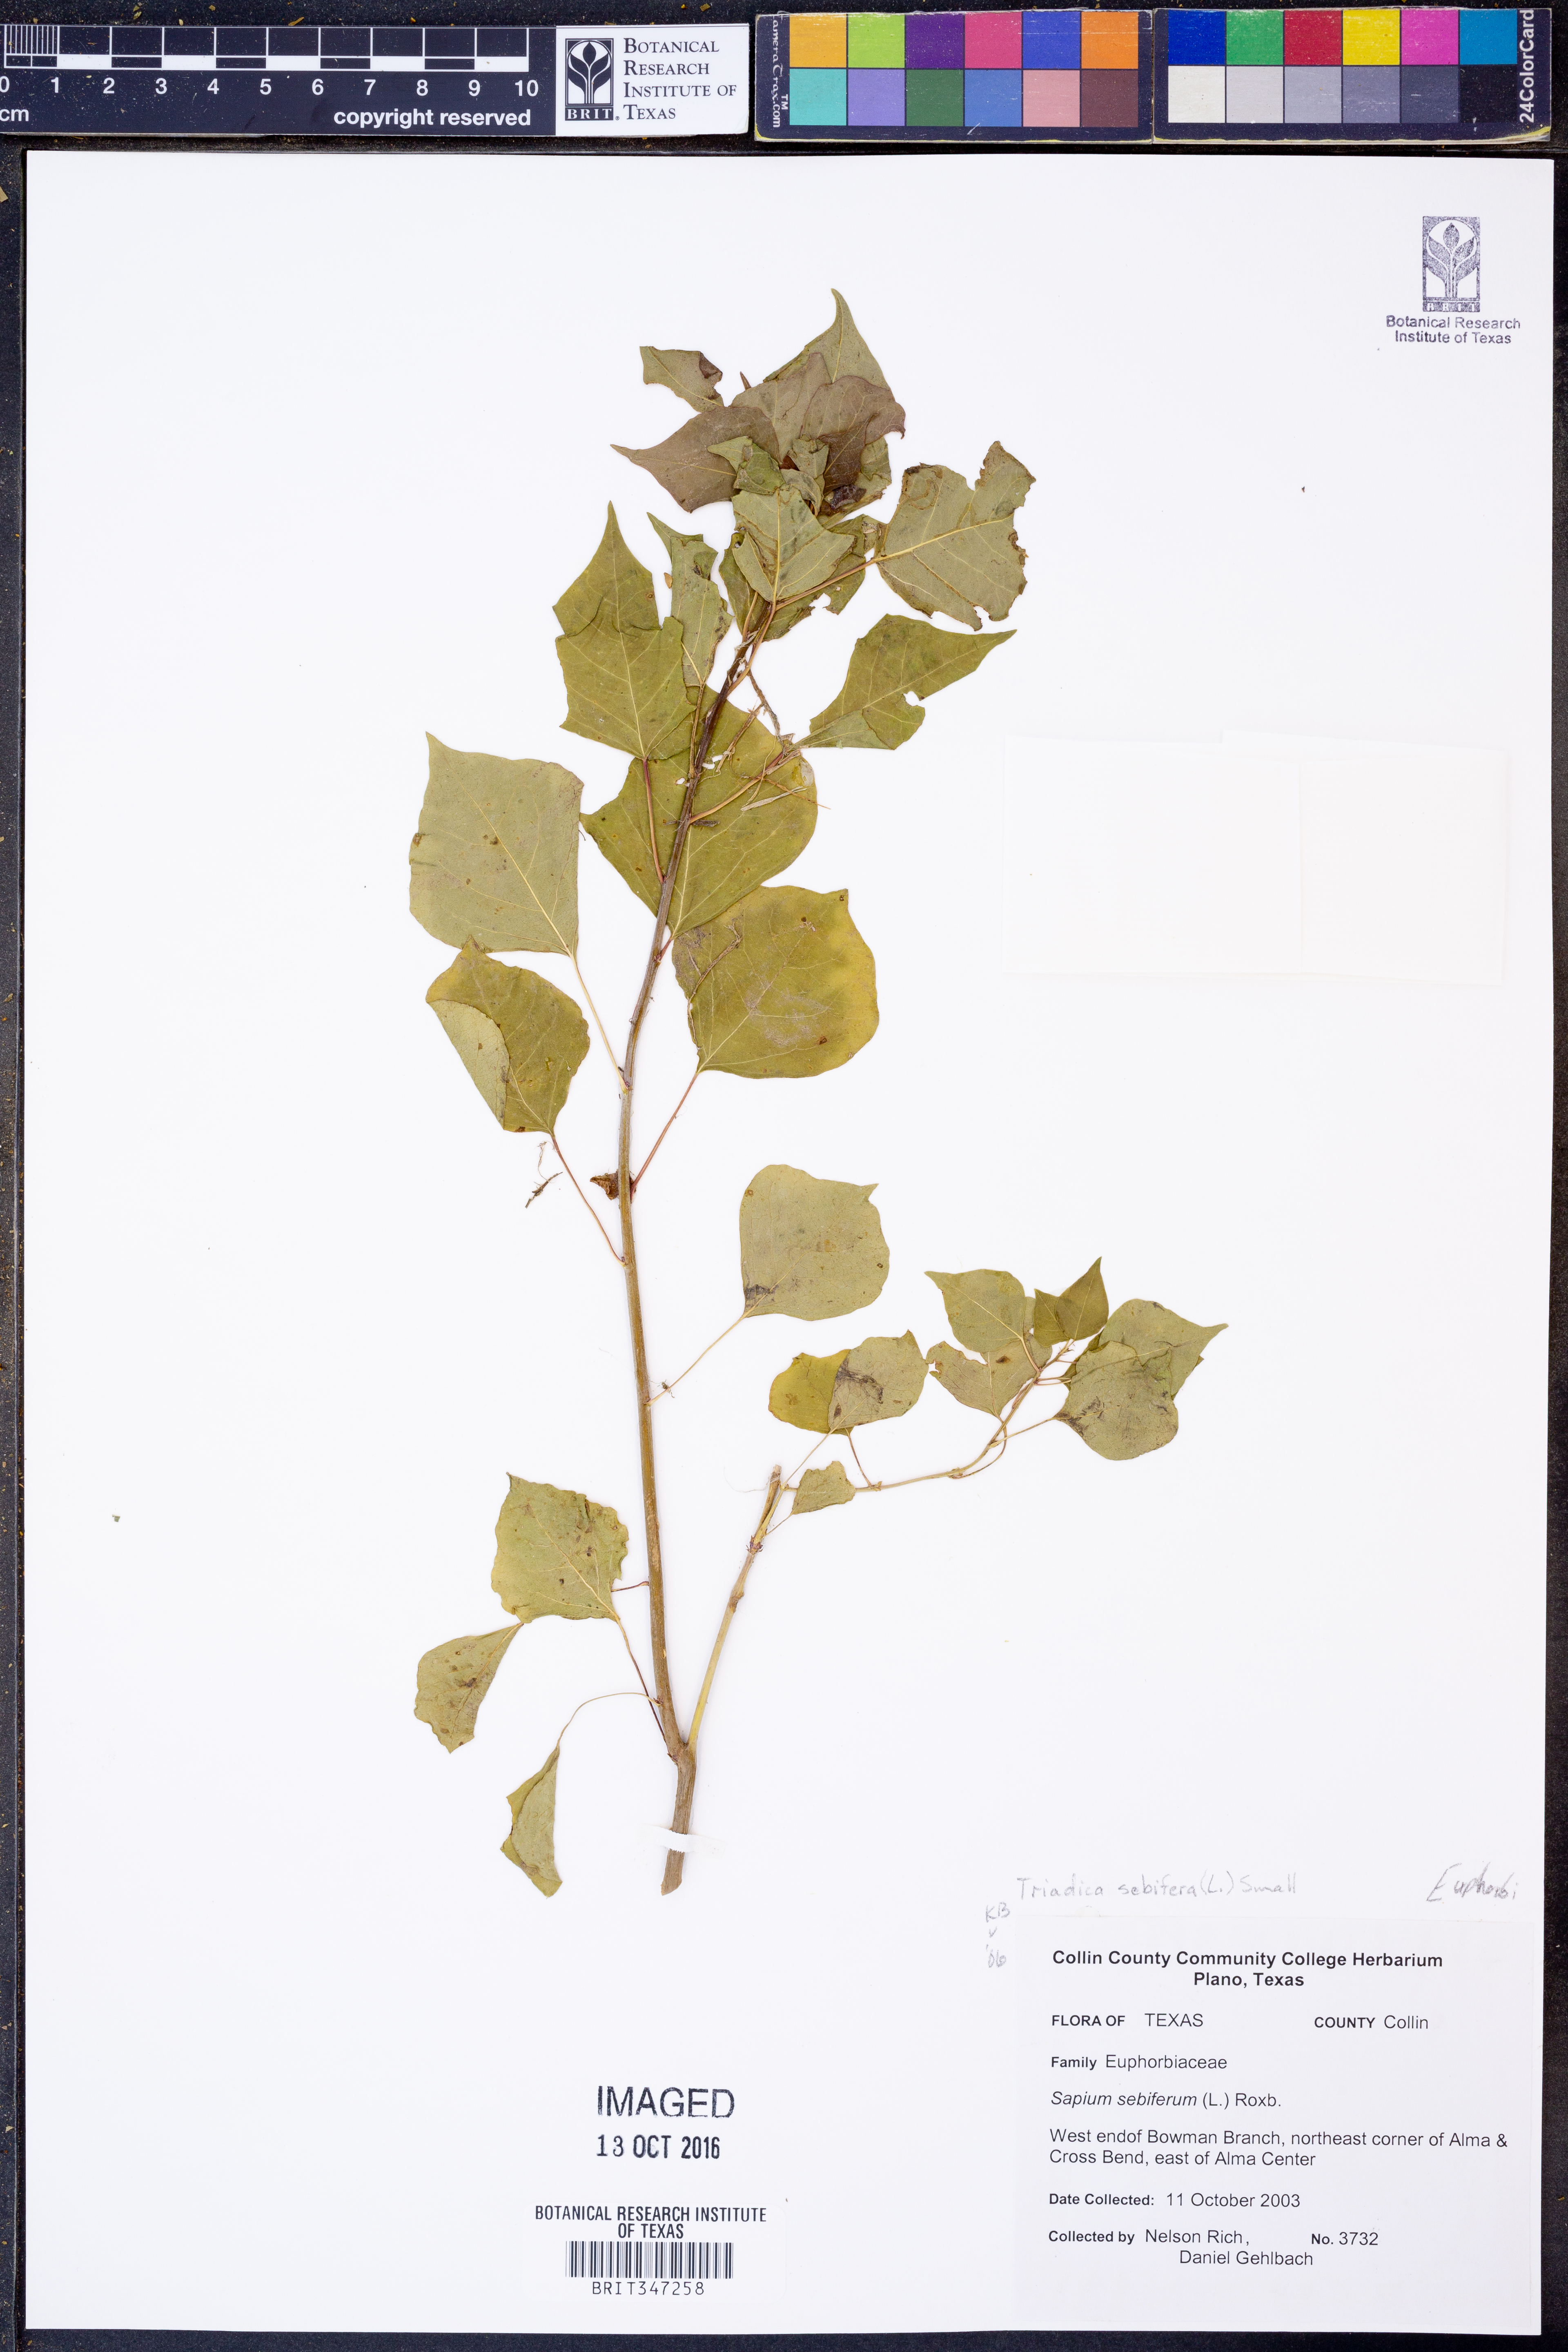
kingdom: Plantae
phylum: Tracheophyta
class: Magnoliopsida
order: Malpighiales
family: Euphorbiaceae
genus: Triadica
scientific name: Triadica sebifera
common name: Chinese tallow
